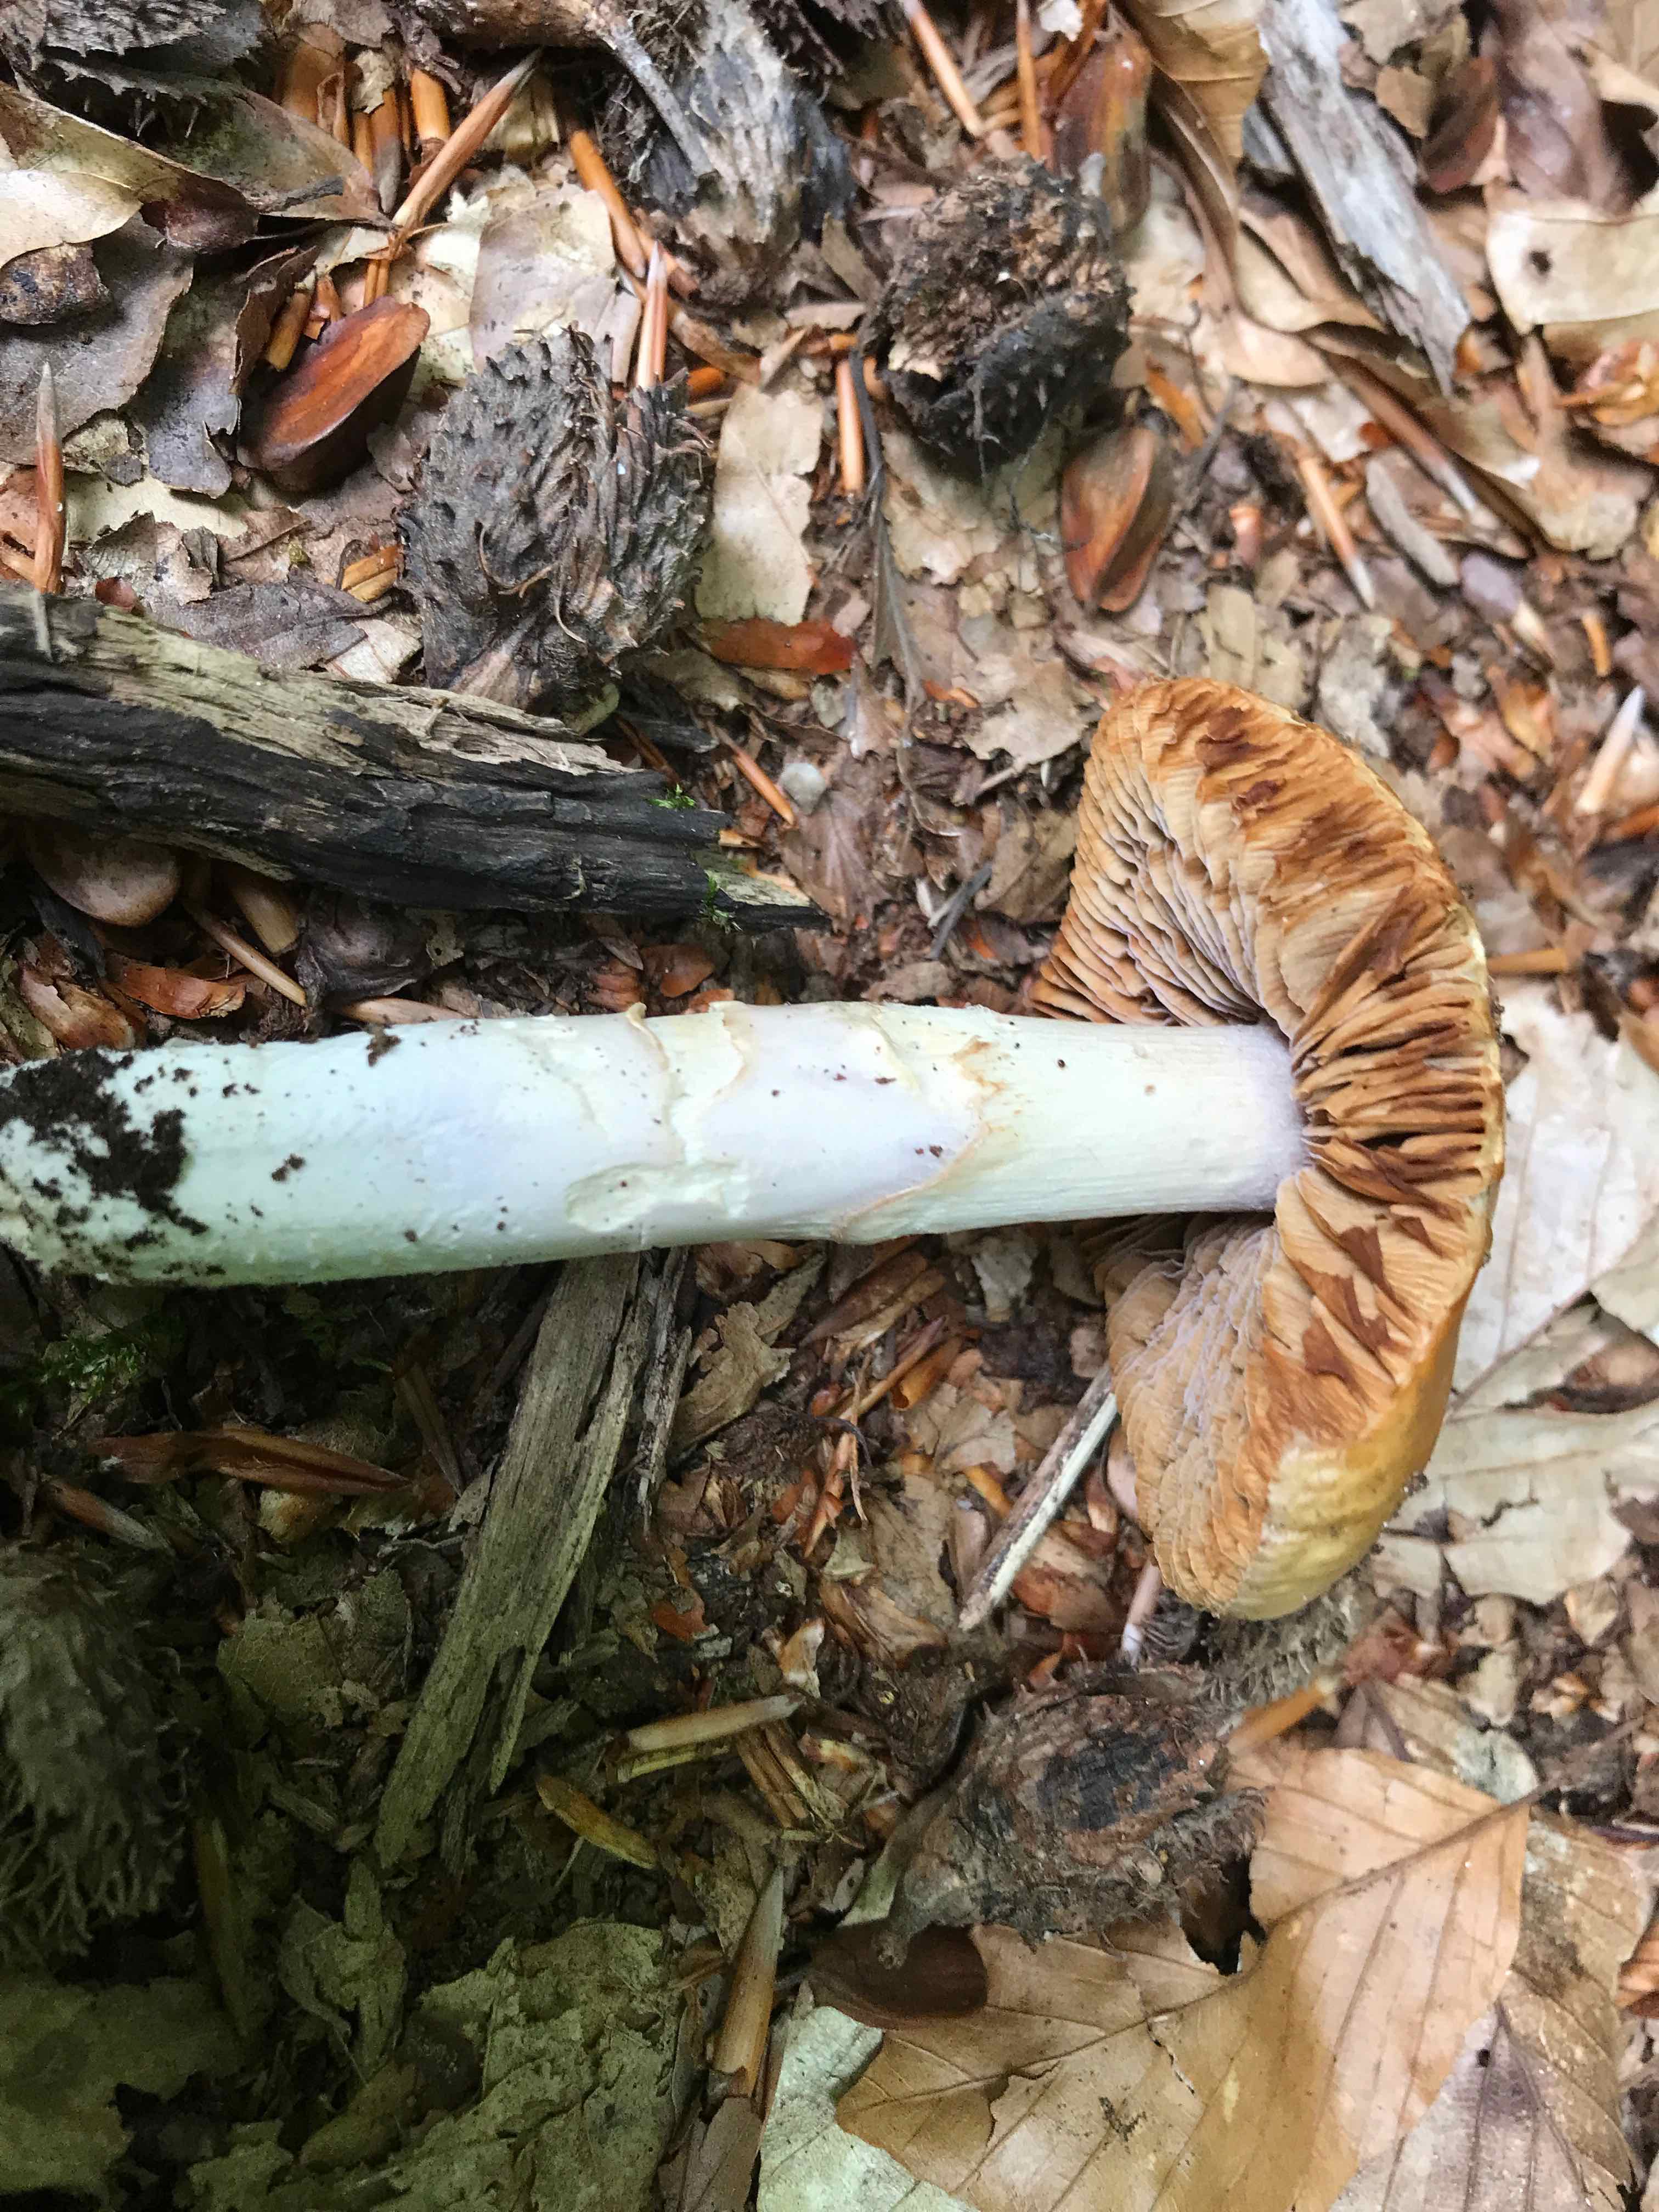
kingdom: Fungi
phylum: Basidiomycota
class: Agaricomycetes
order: Agaricales
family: Cortinariaceae
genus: Cortinarius
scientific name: Cortinarius elatior
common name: høj slørhat
